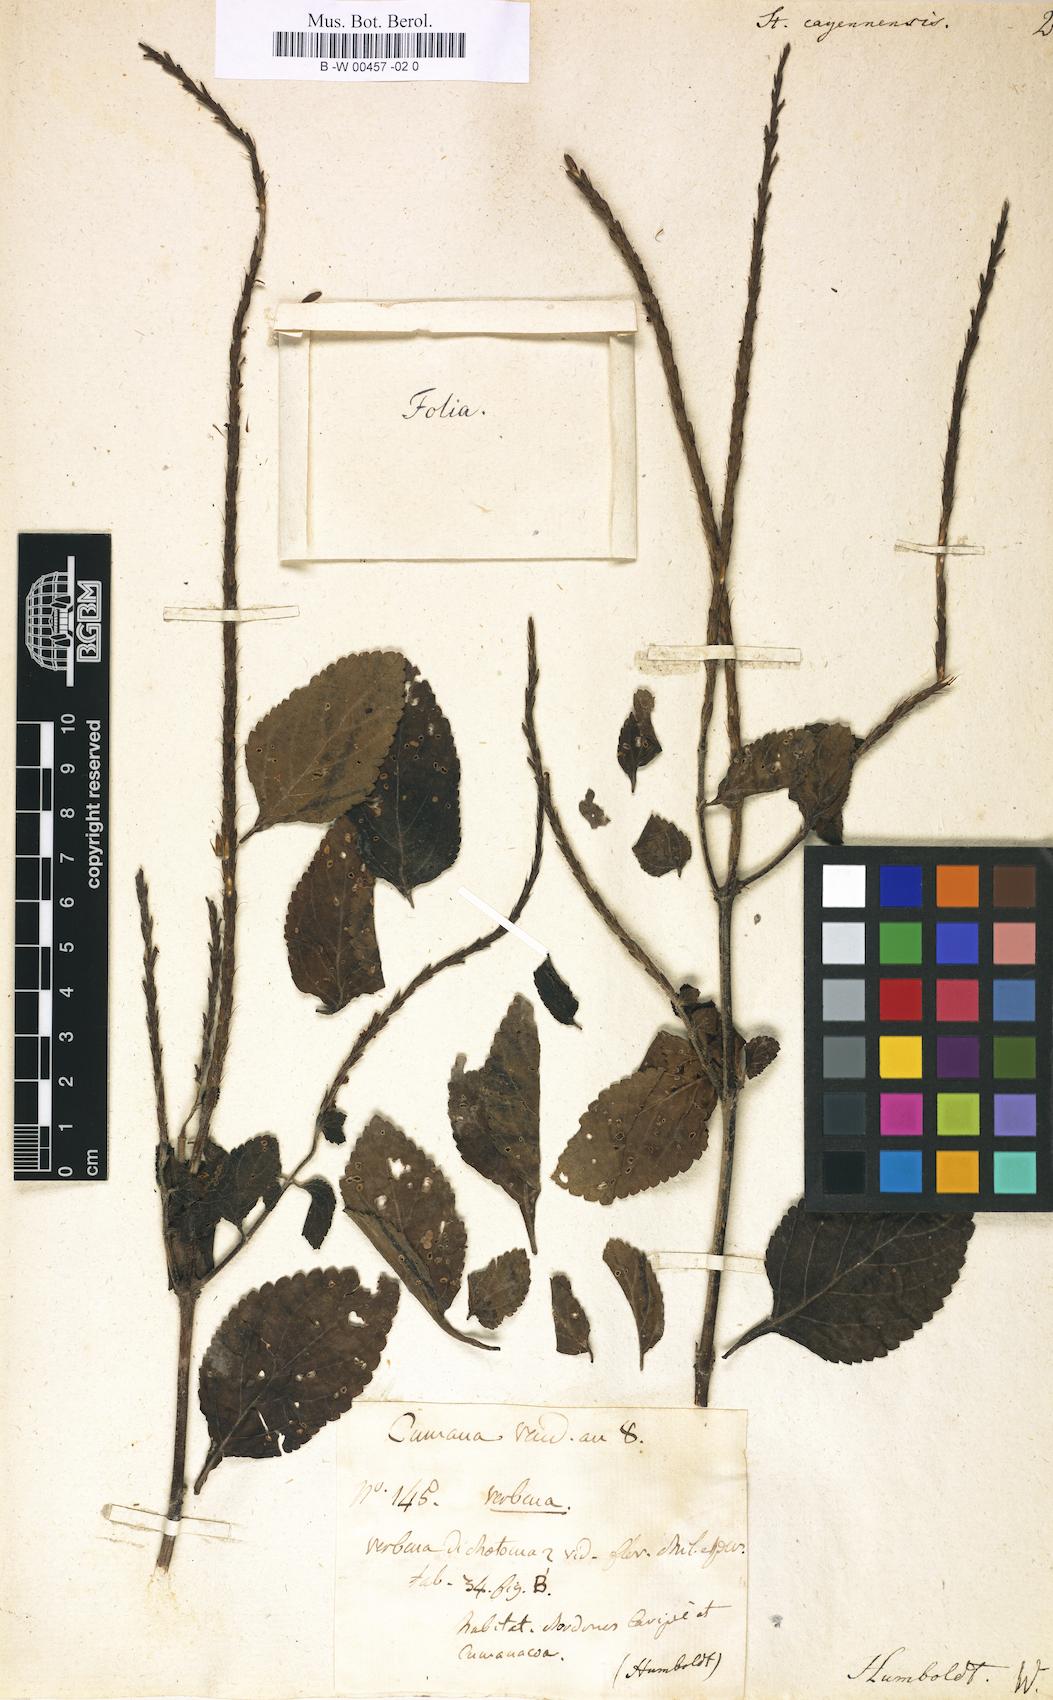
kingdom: Plantae
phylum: Tracheophyta
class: Magnoliopsida
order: Lamiales
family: Verbenaceae
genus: Stachytarpheta
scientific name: Stachytarpheta cayennensis
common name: Cayenne porterweed
